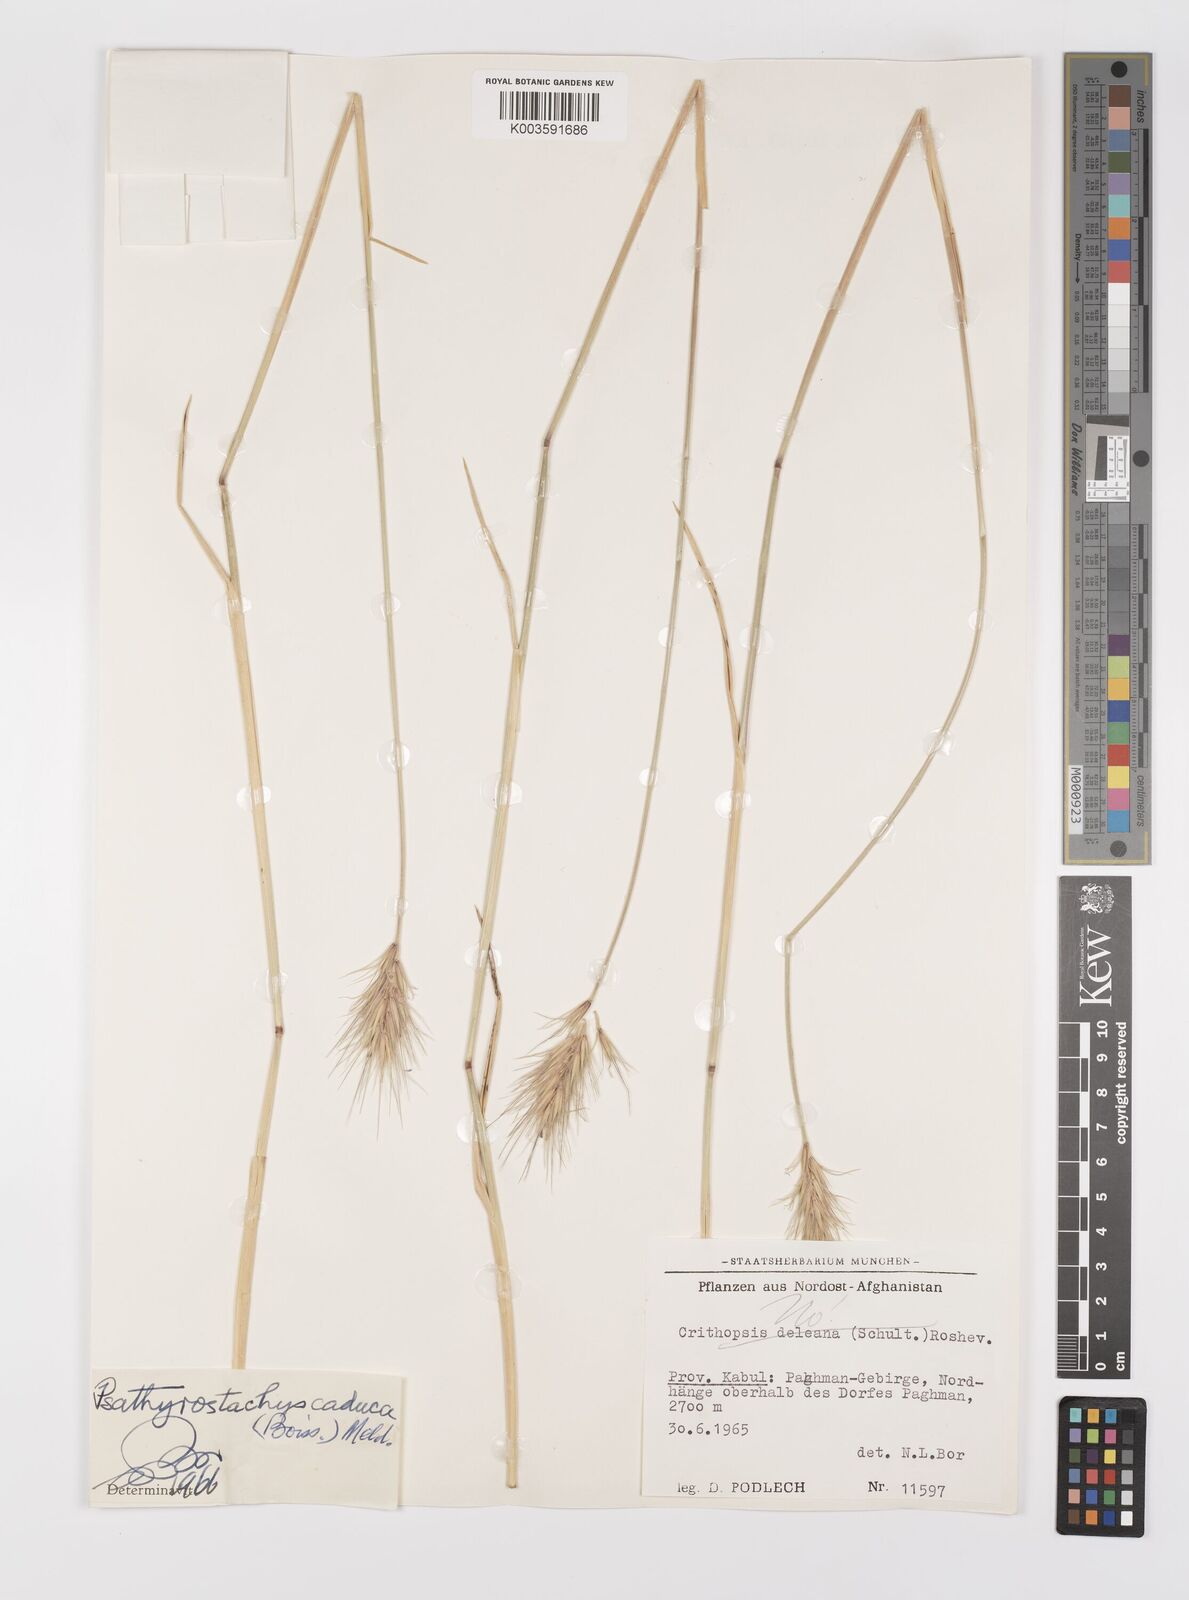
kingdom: Plantae
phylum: Tracheophyta
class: Liliopsida
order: Poales
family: Poaceae
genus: Psathyrostachys
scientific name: Psathyrostachys caduca
